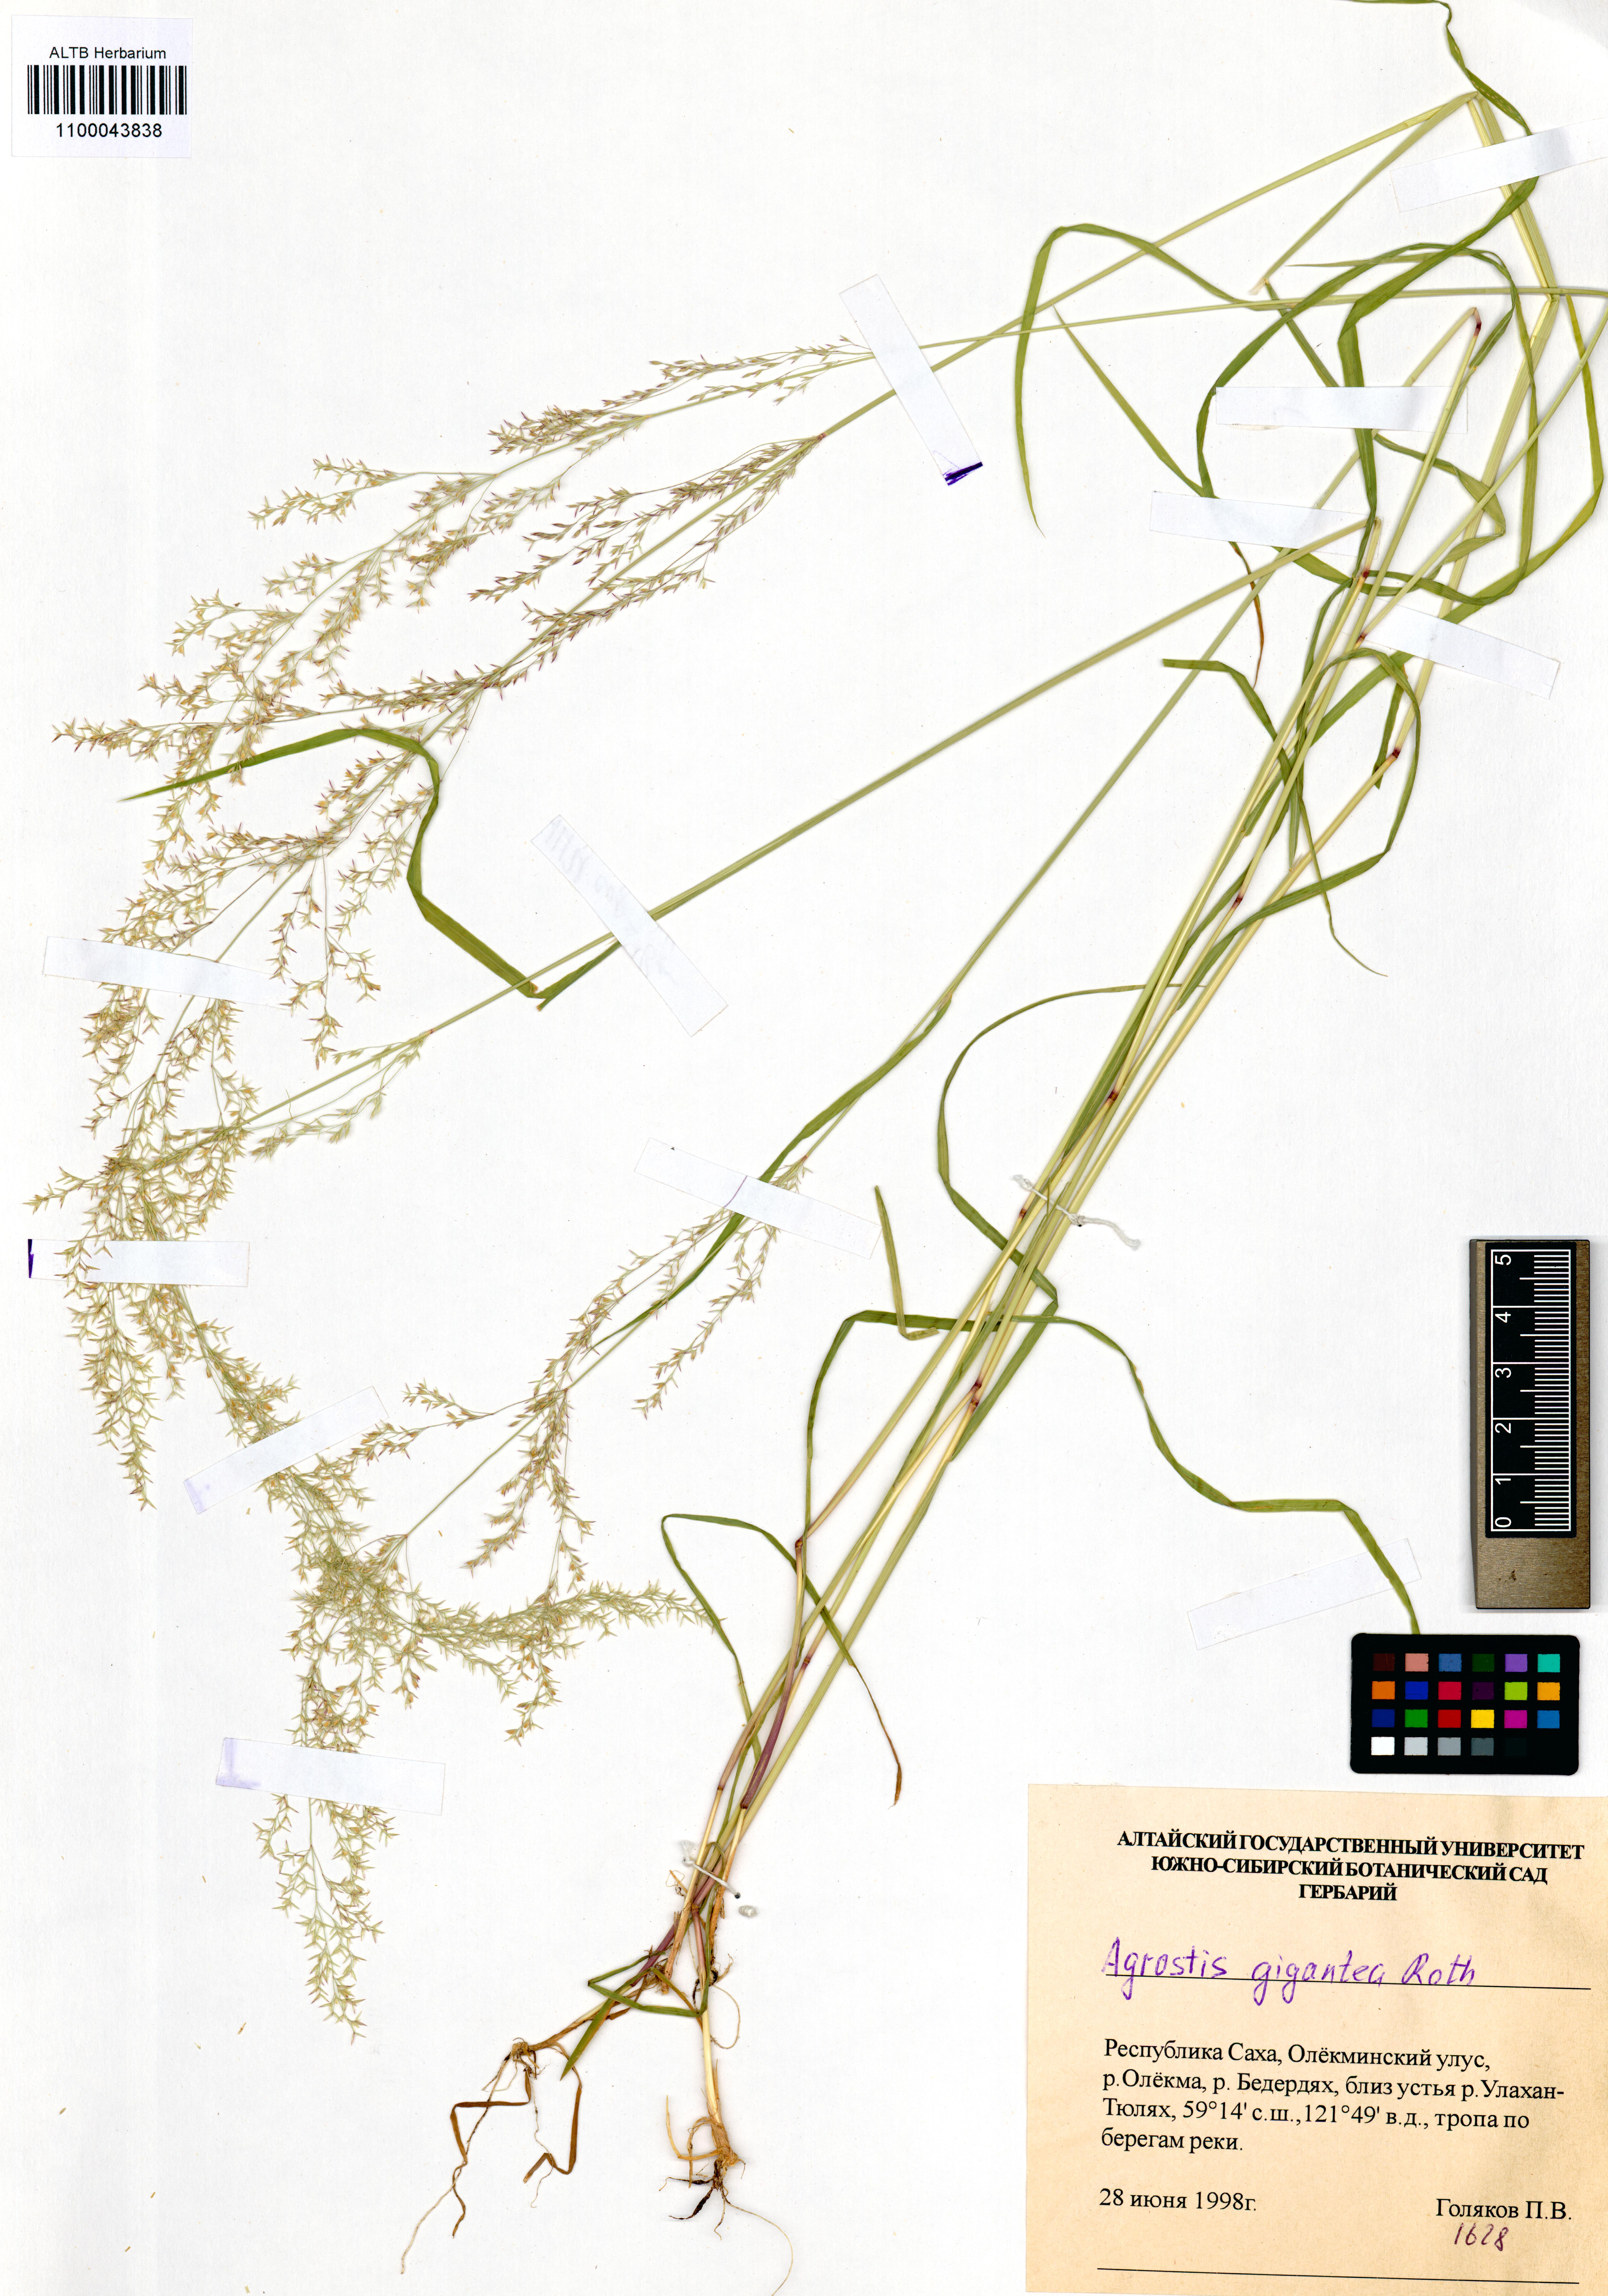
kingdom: Plantae
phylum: Tracheophyta
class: Liliopsida
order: Poales
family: Poaceae
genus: Agrostis
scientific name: Agrostis gigantea
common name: Black bent
